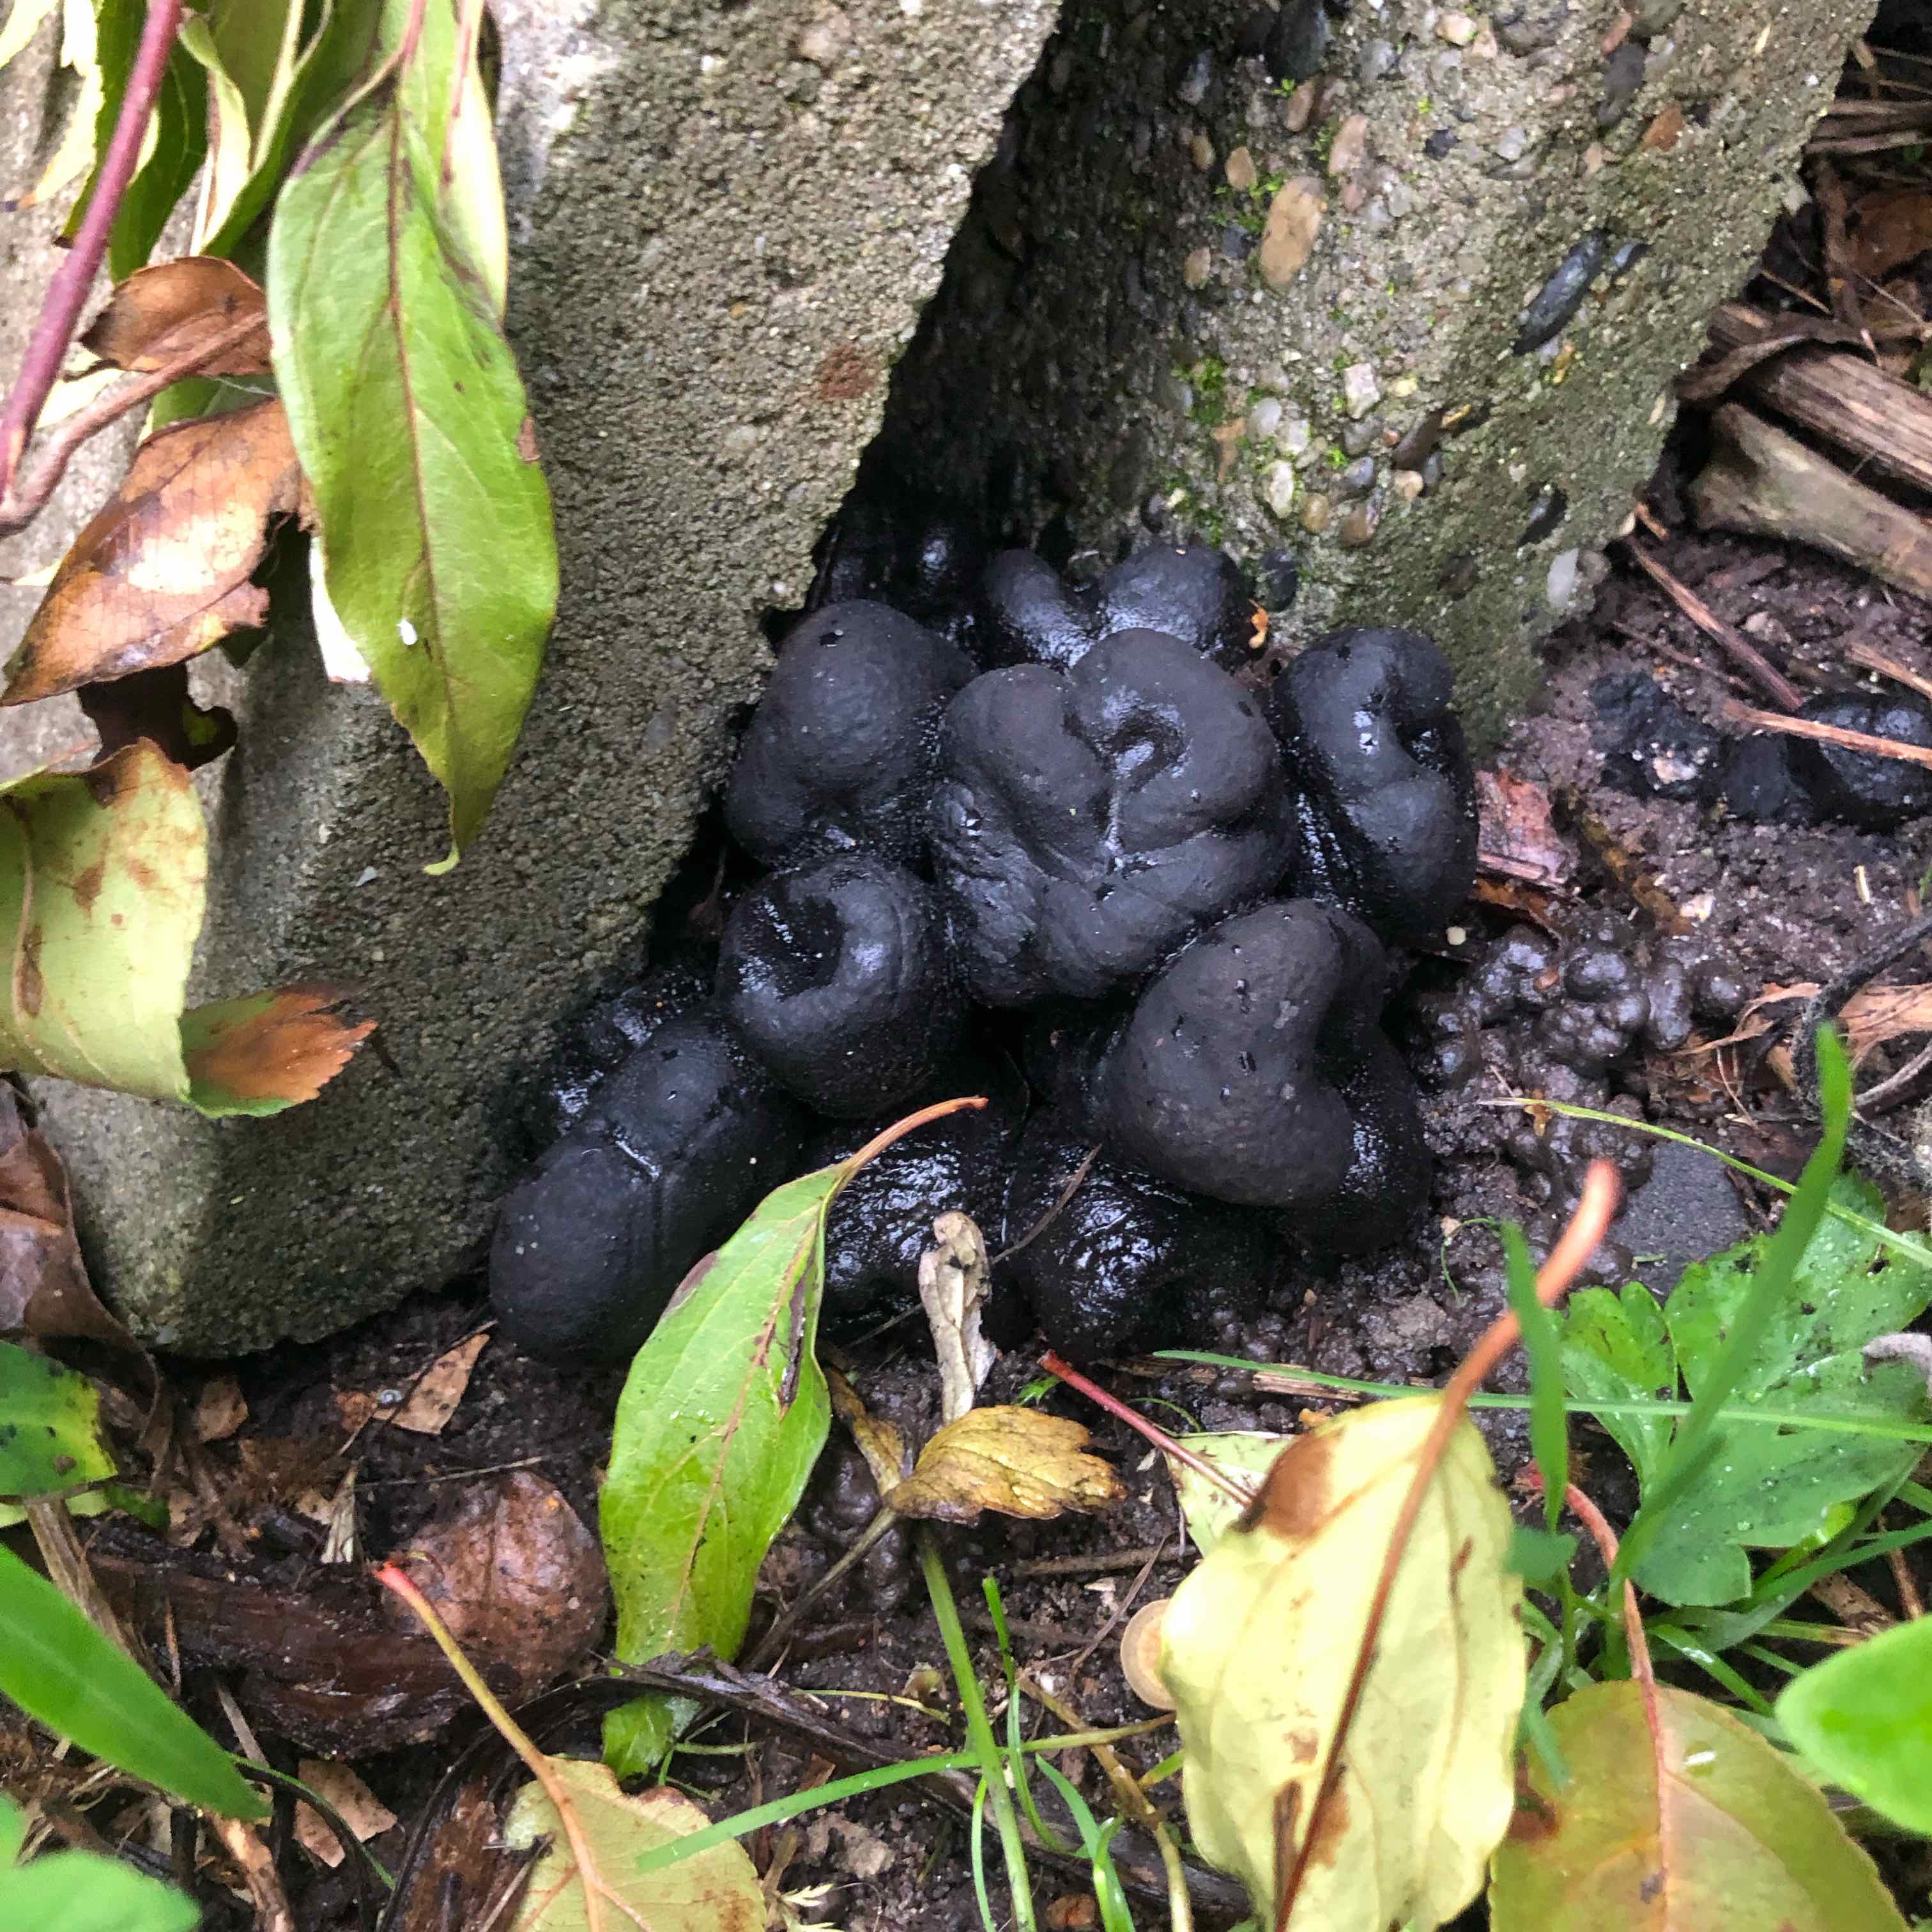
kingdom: Fungi
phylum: Ascomycota
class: Sordariomycetes
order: Xylariales
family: Xylariaceae
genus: Xylaria
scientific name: Xylaria polymorpha
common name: kølle-stødsvamp
